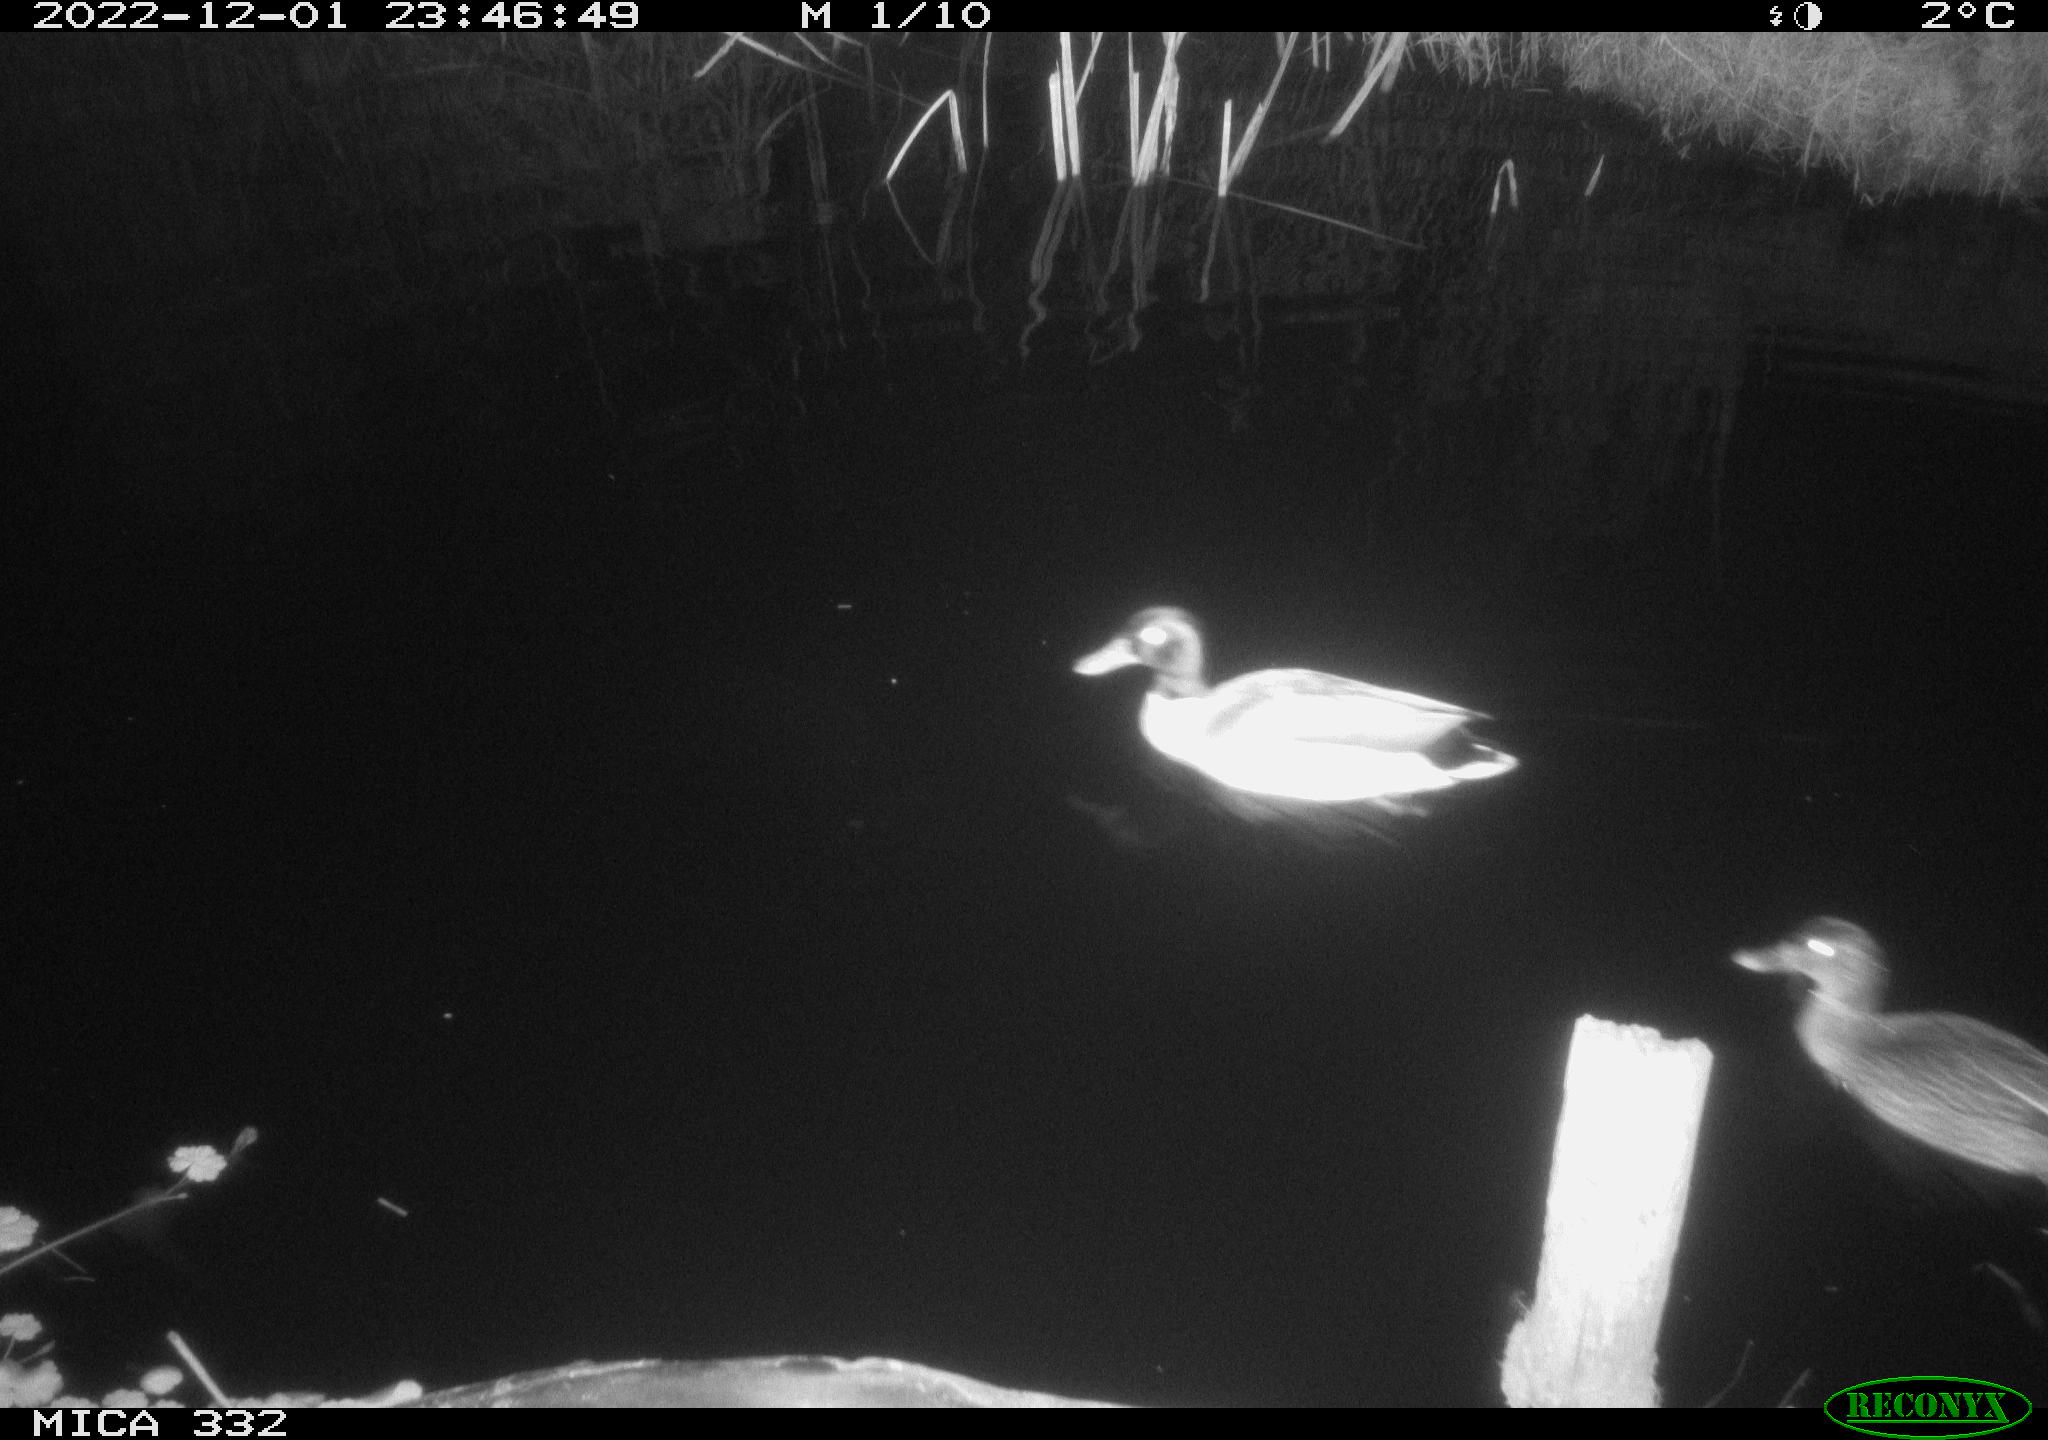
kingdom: Animalia
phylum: Chordata
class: Aves
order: Anseriformes
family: Anatidae
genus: Anas
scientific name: Anas
